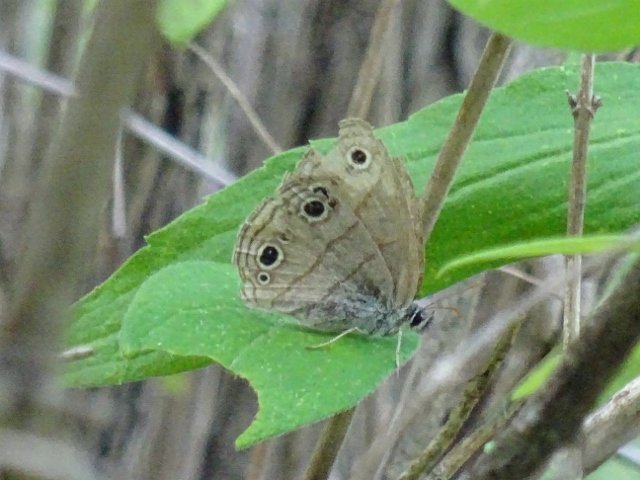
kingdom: Animalia
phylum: Arthropoda
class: Insecta
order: Lepidoptera
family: Nymphalidae
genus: Euptychia
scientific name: Euptychia cymela
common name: Little Wood Satyr
